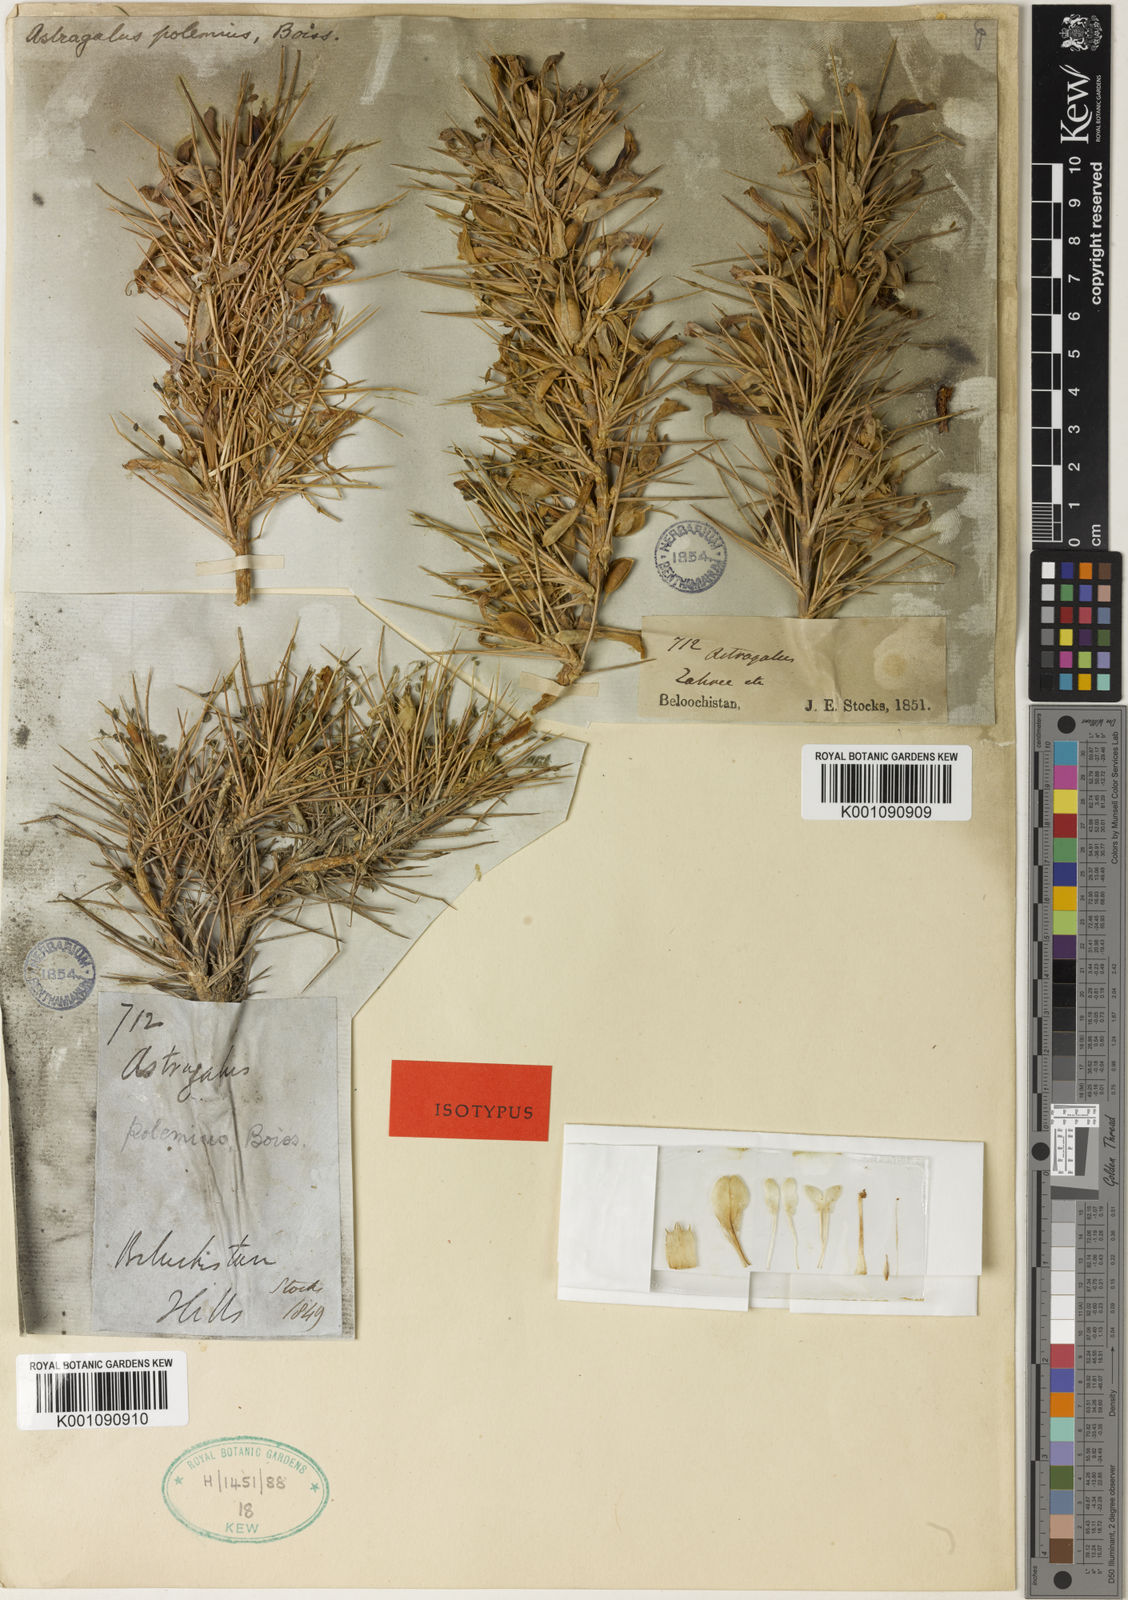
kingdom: Plantae
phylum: Tracheophyta
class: Magnoliopsida
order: Fabales
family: Fabaceae
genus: Astragalus
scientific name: Astragalus
